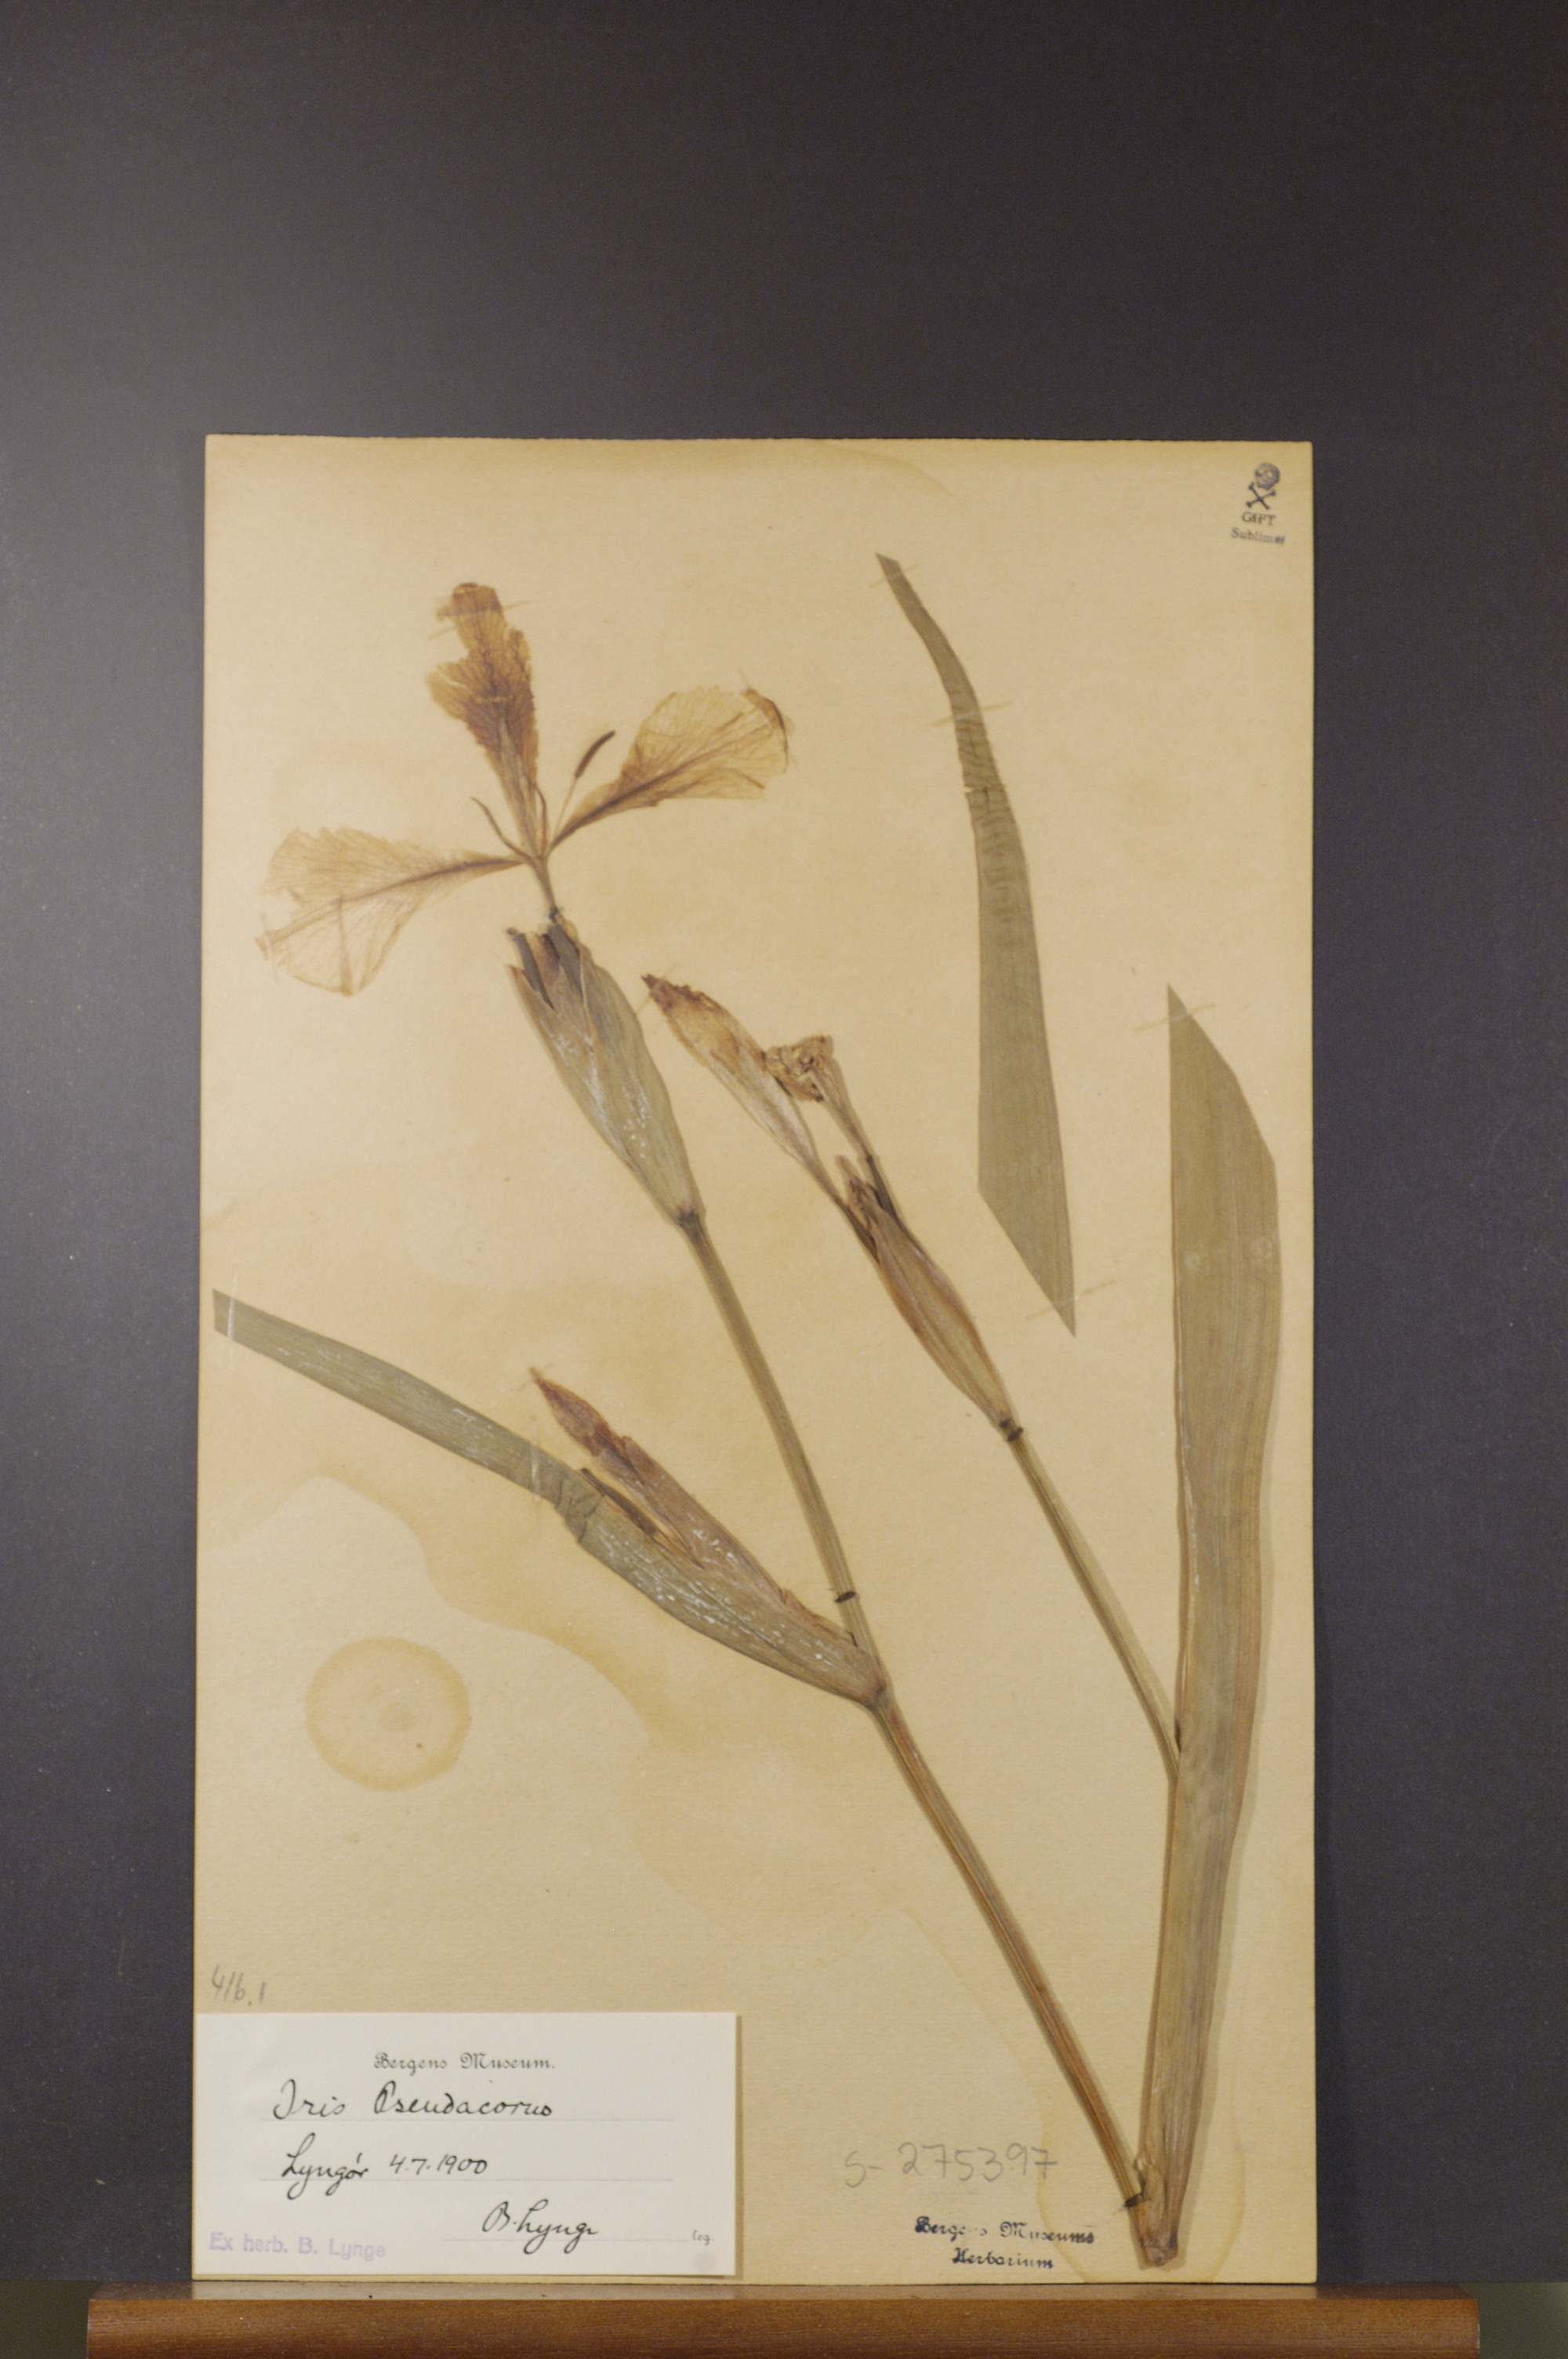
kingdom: Plantae
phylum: Tracheophyta
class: Liliopsida
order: Asparagales
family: Iridaceae
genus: Iris
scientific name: Iris pseudacorus
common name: Yellow flag
